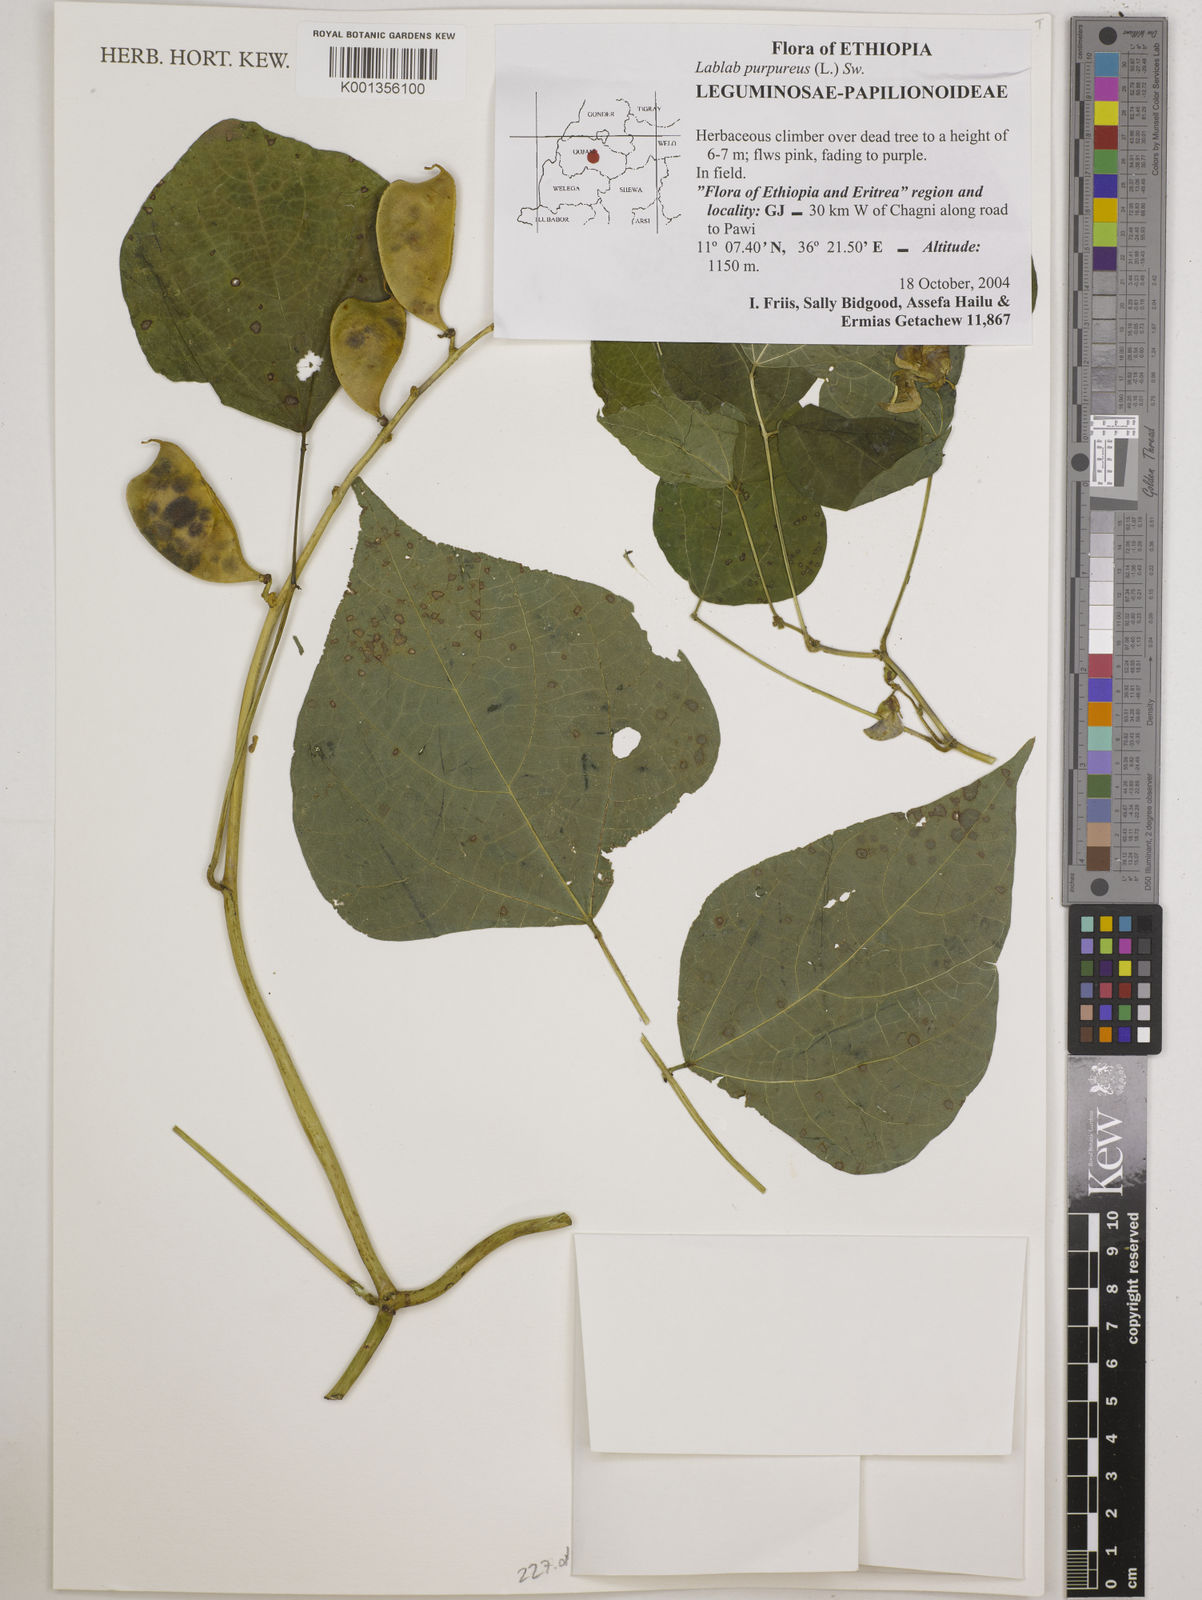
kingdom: Plantae
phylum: Tracheophyta
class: Magnoliopsida
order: Fabales
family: Fabaceae
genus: Lablab
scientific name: Lablab purpureus
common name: Lablab-bean
